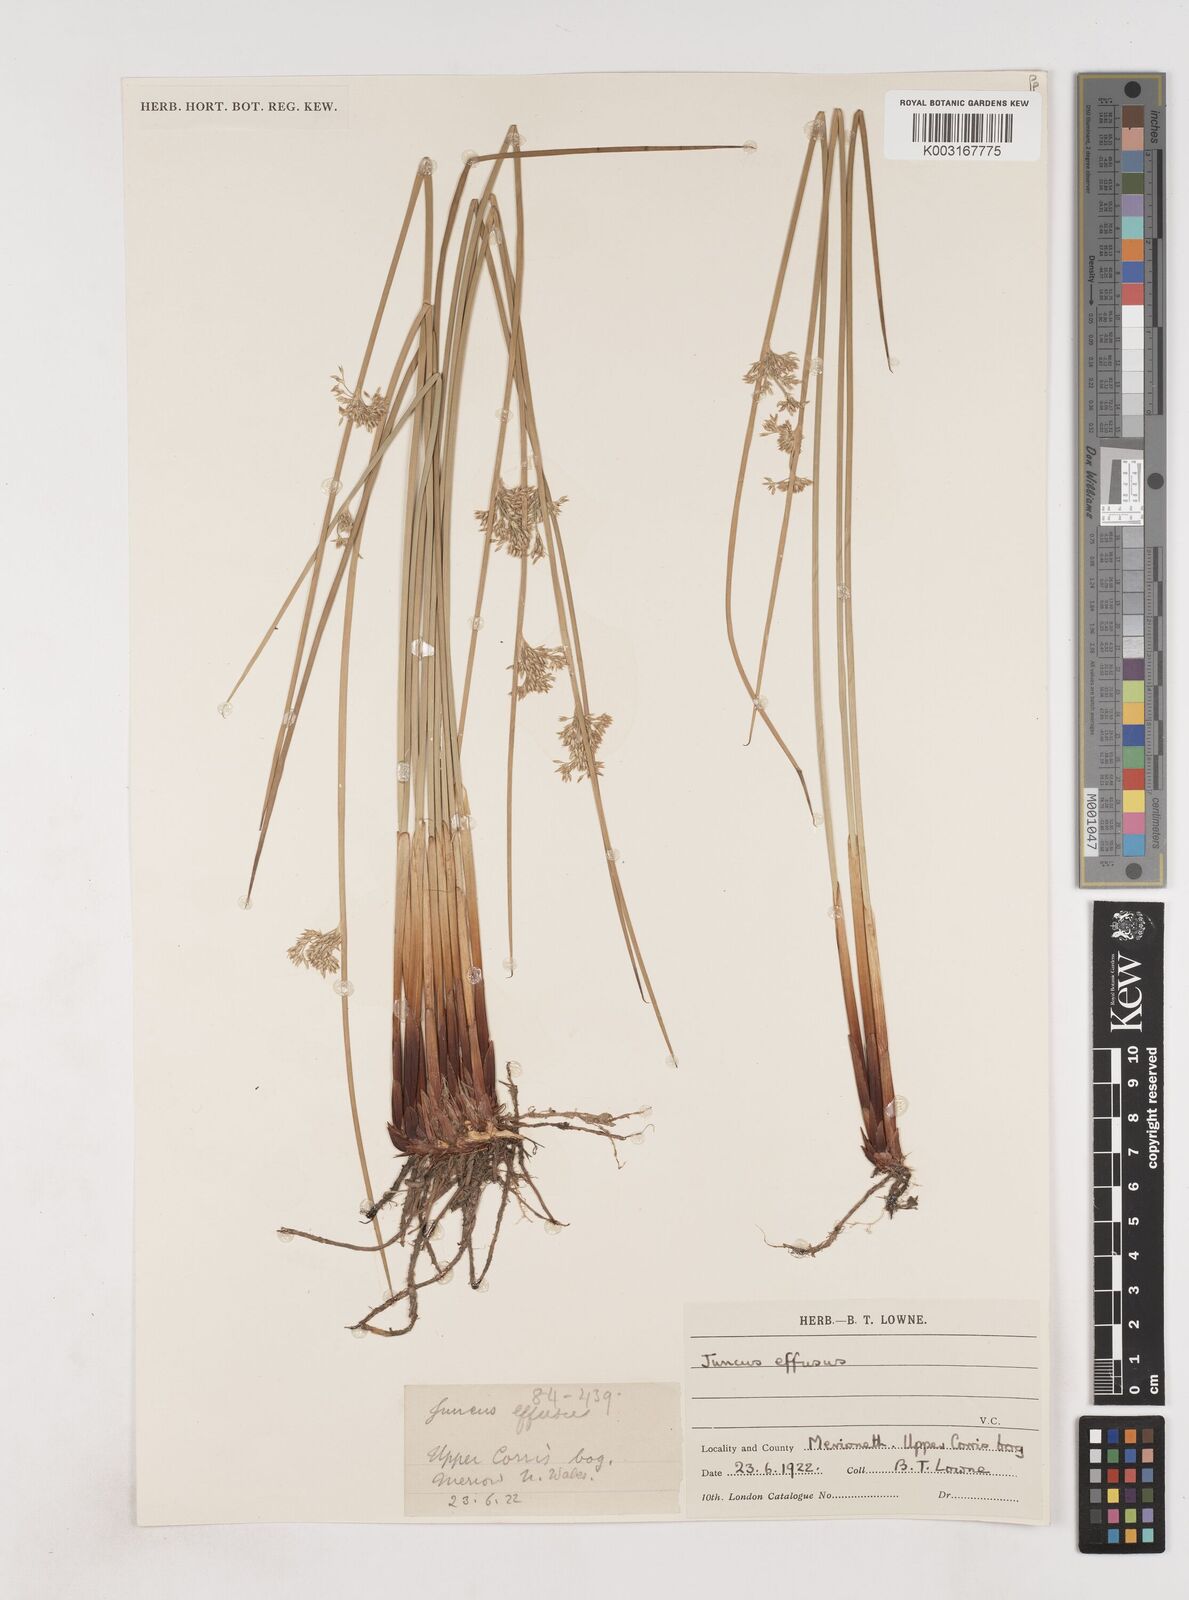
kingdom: Plantae
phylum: Tracheophyta
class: Liliopsida
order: Poales
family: Juncaceae
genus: Juncus
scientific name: Juncus effusus
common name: Soft rush
